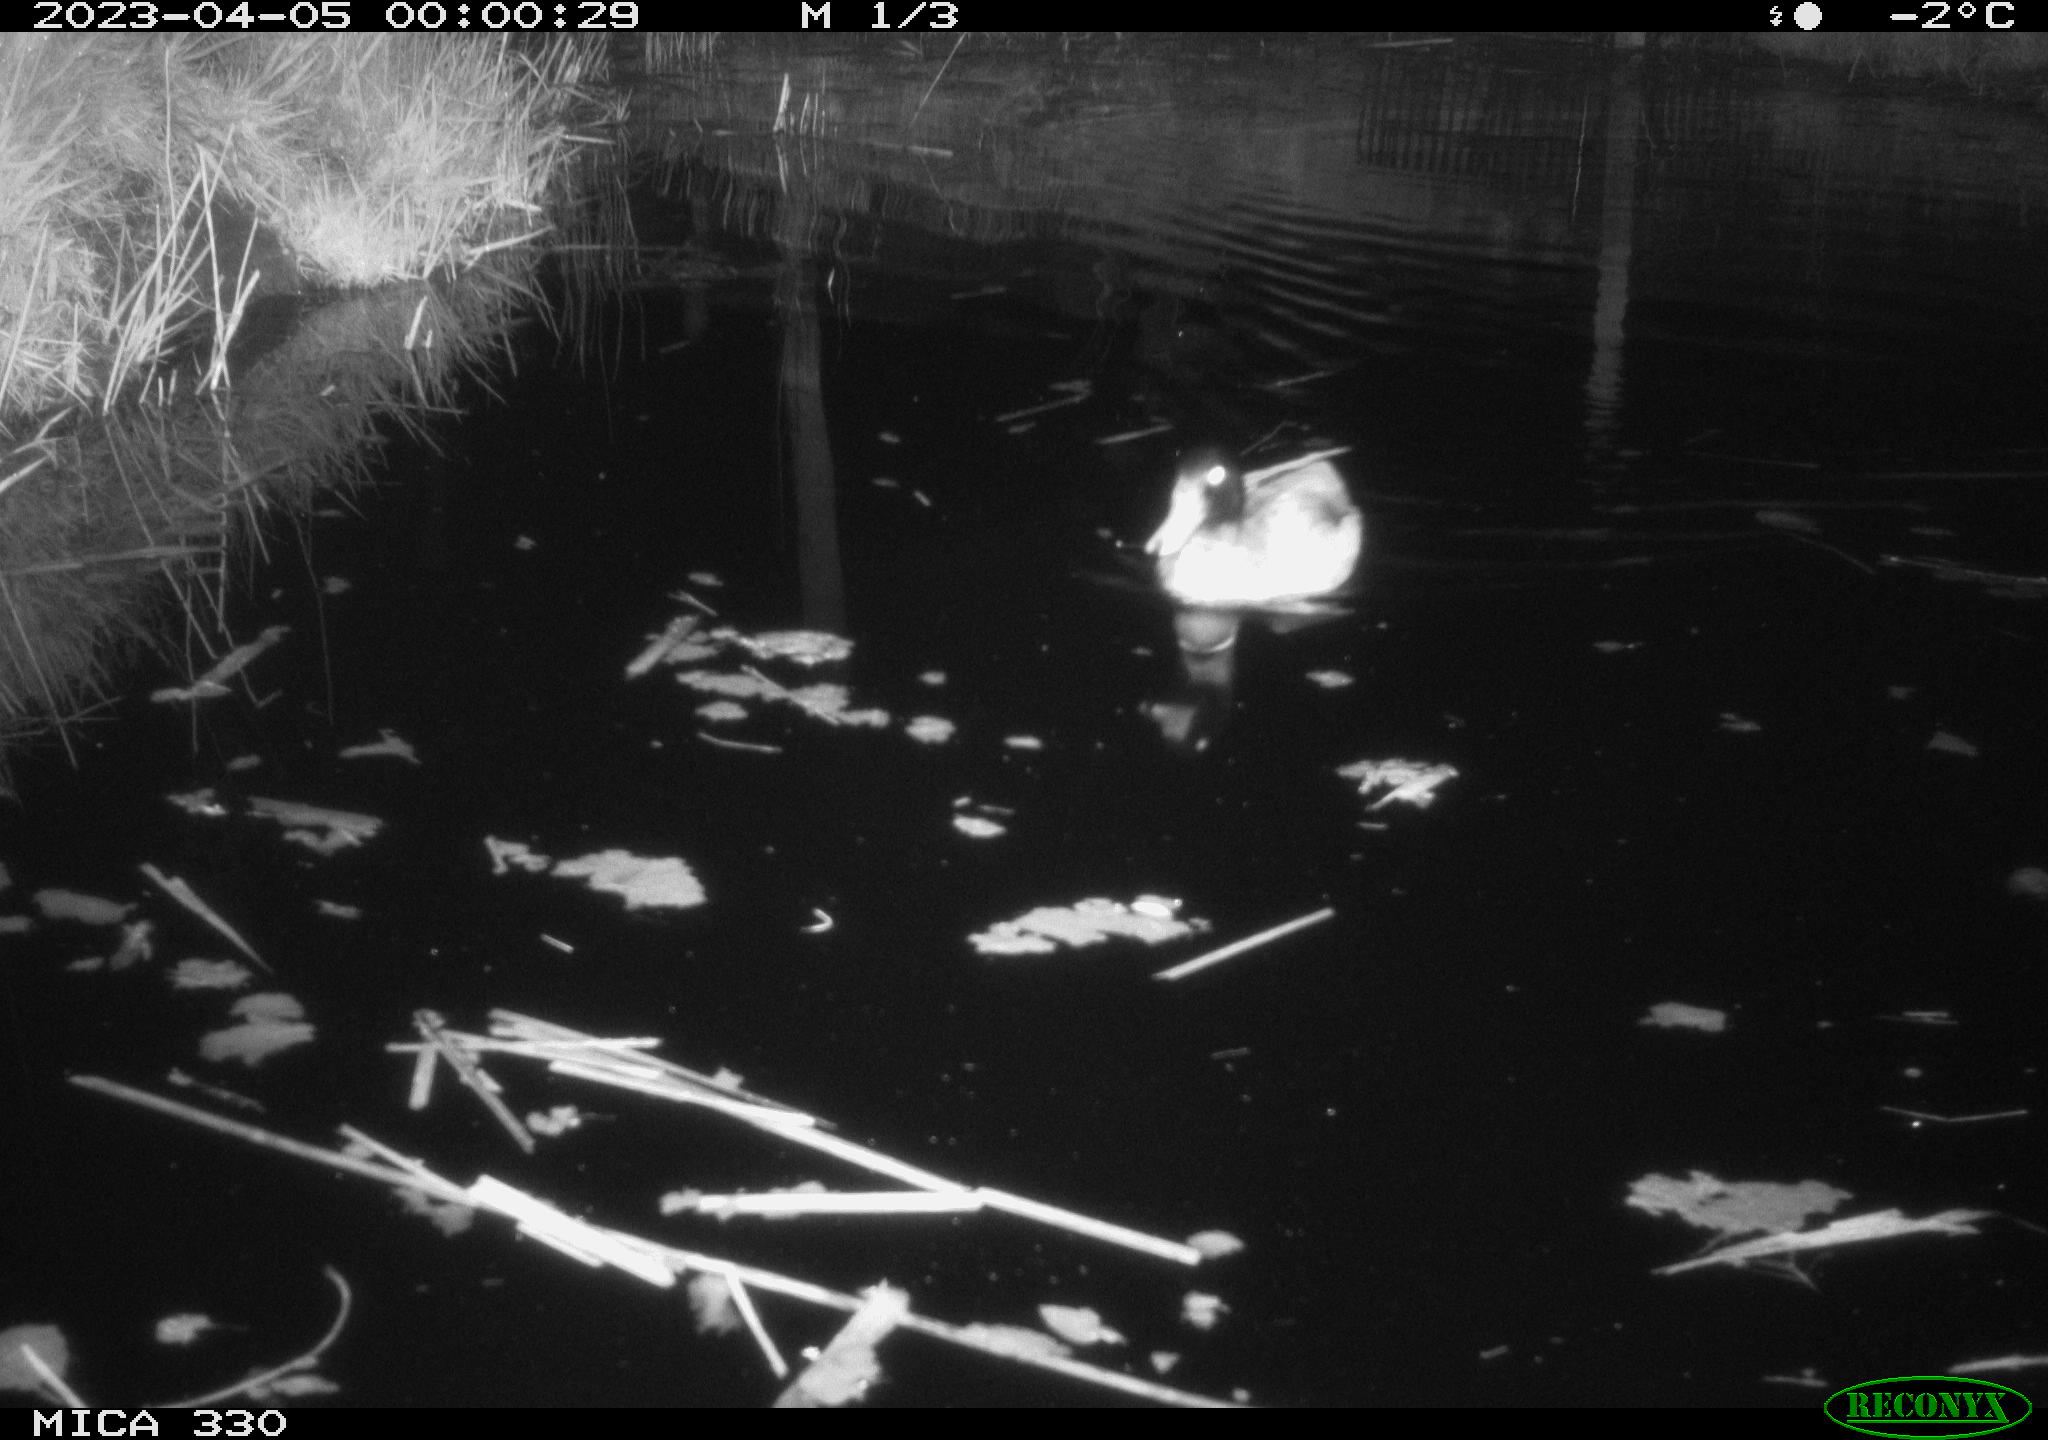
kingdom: Animalia
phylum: Chordata
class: Aves
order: Anseriformes
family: Anatidae
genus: Anas
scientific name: Anas
